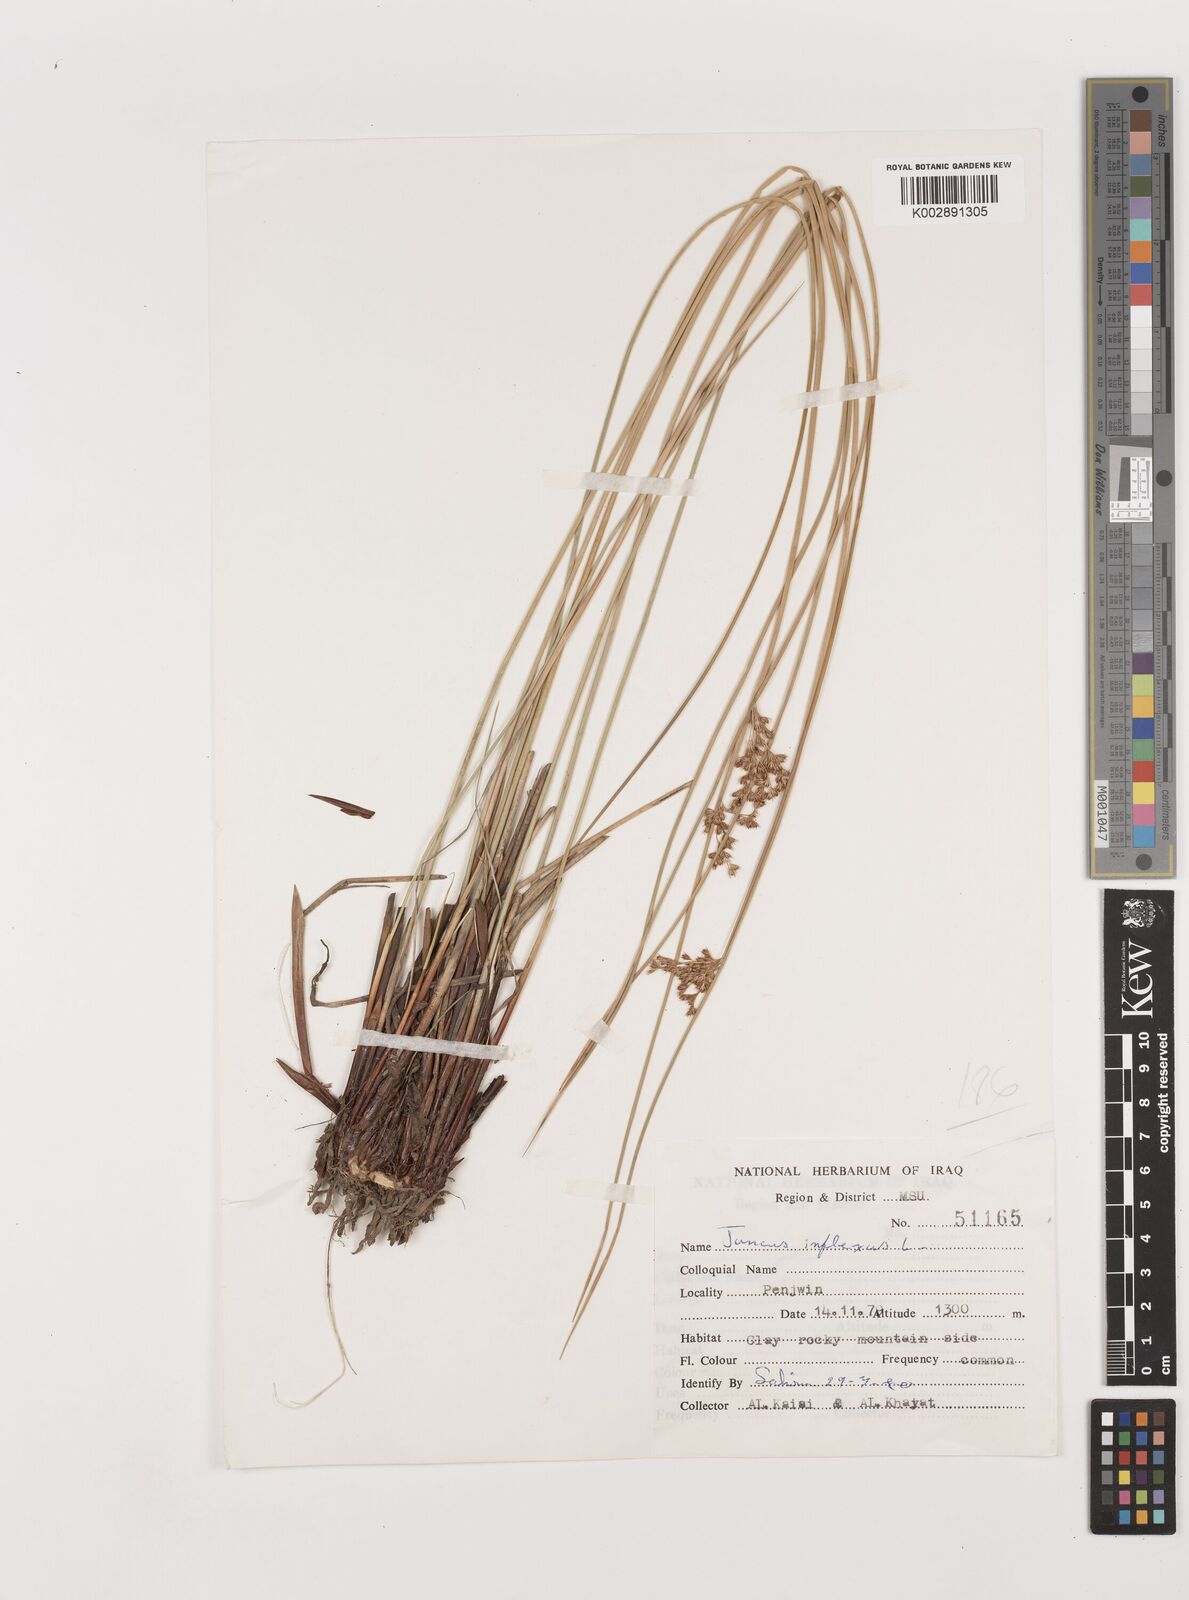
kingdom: Plantae
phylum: Tracheophyta
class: Liliopsida
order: Poales
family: Juncaceae
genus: Juncus
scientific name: Juncus inflexus
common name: Hard rush
